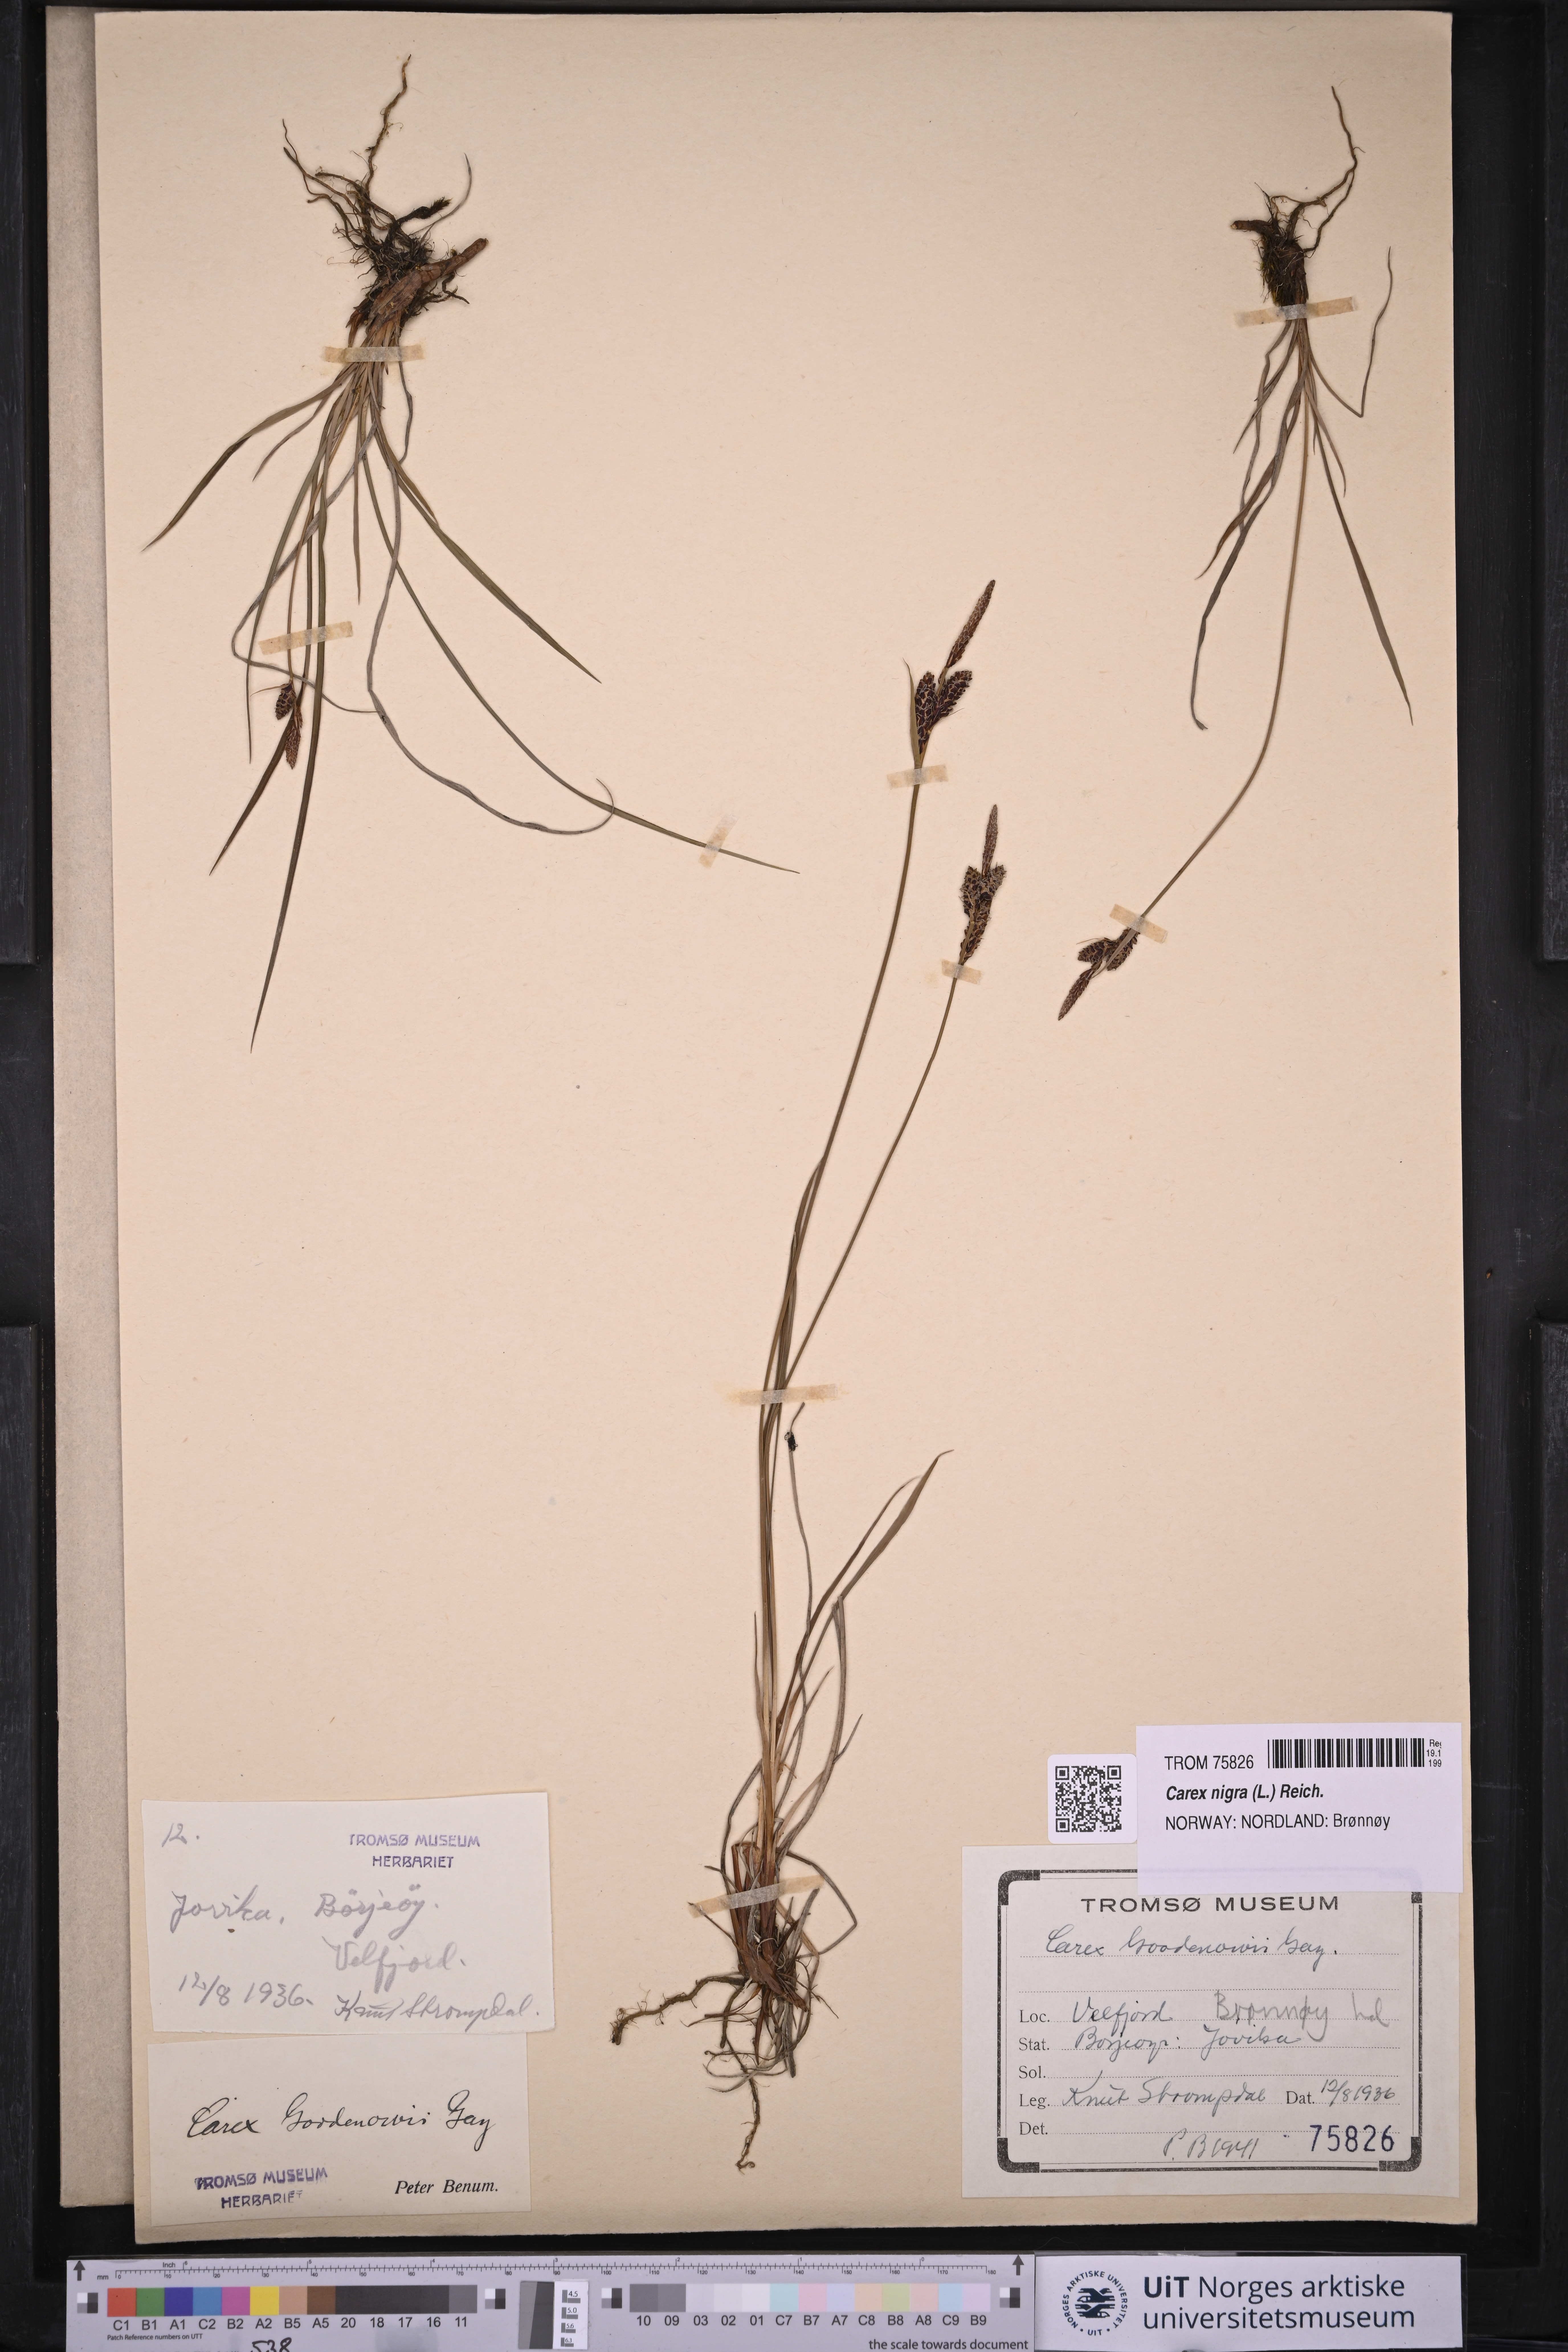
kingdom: Plantae
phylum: Tracheophyta
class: Liliopsida
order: Poales
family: Cyperaceae
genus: Carex
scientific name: Carex nigra
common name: Common sedge
